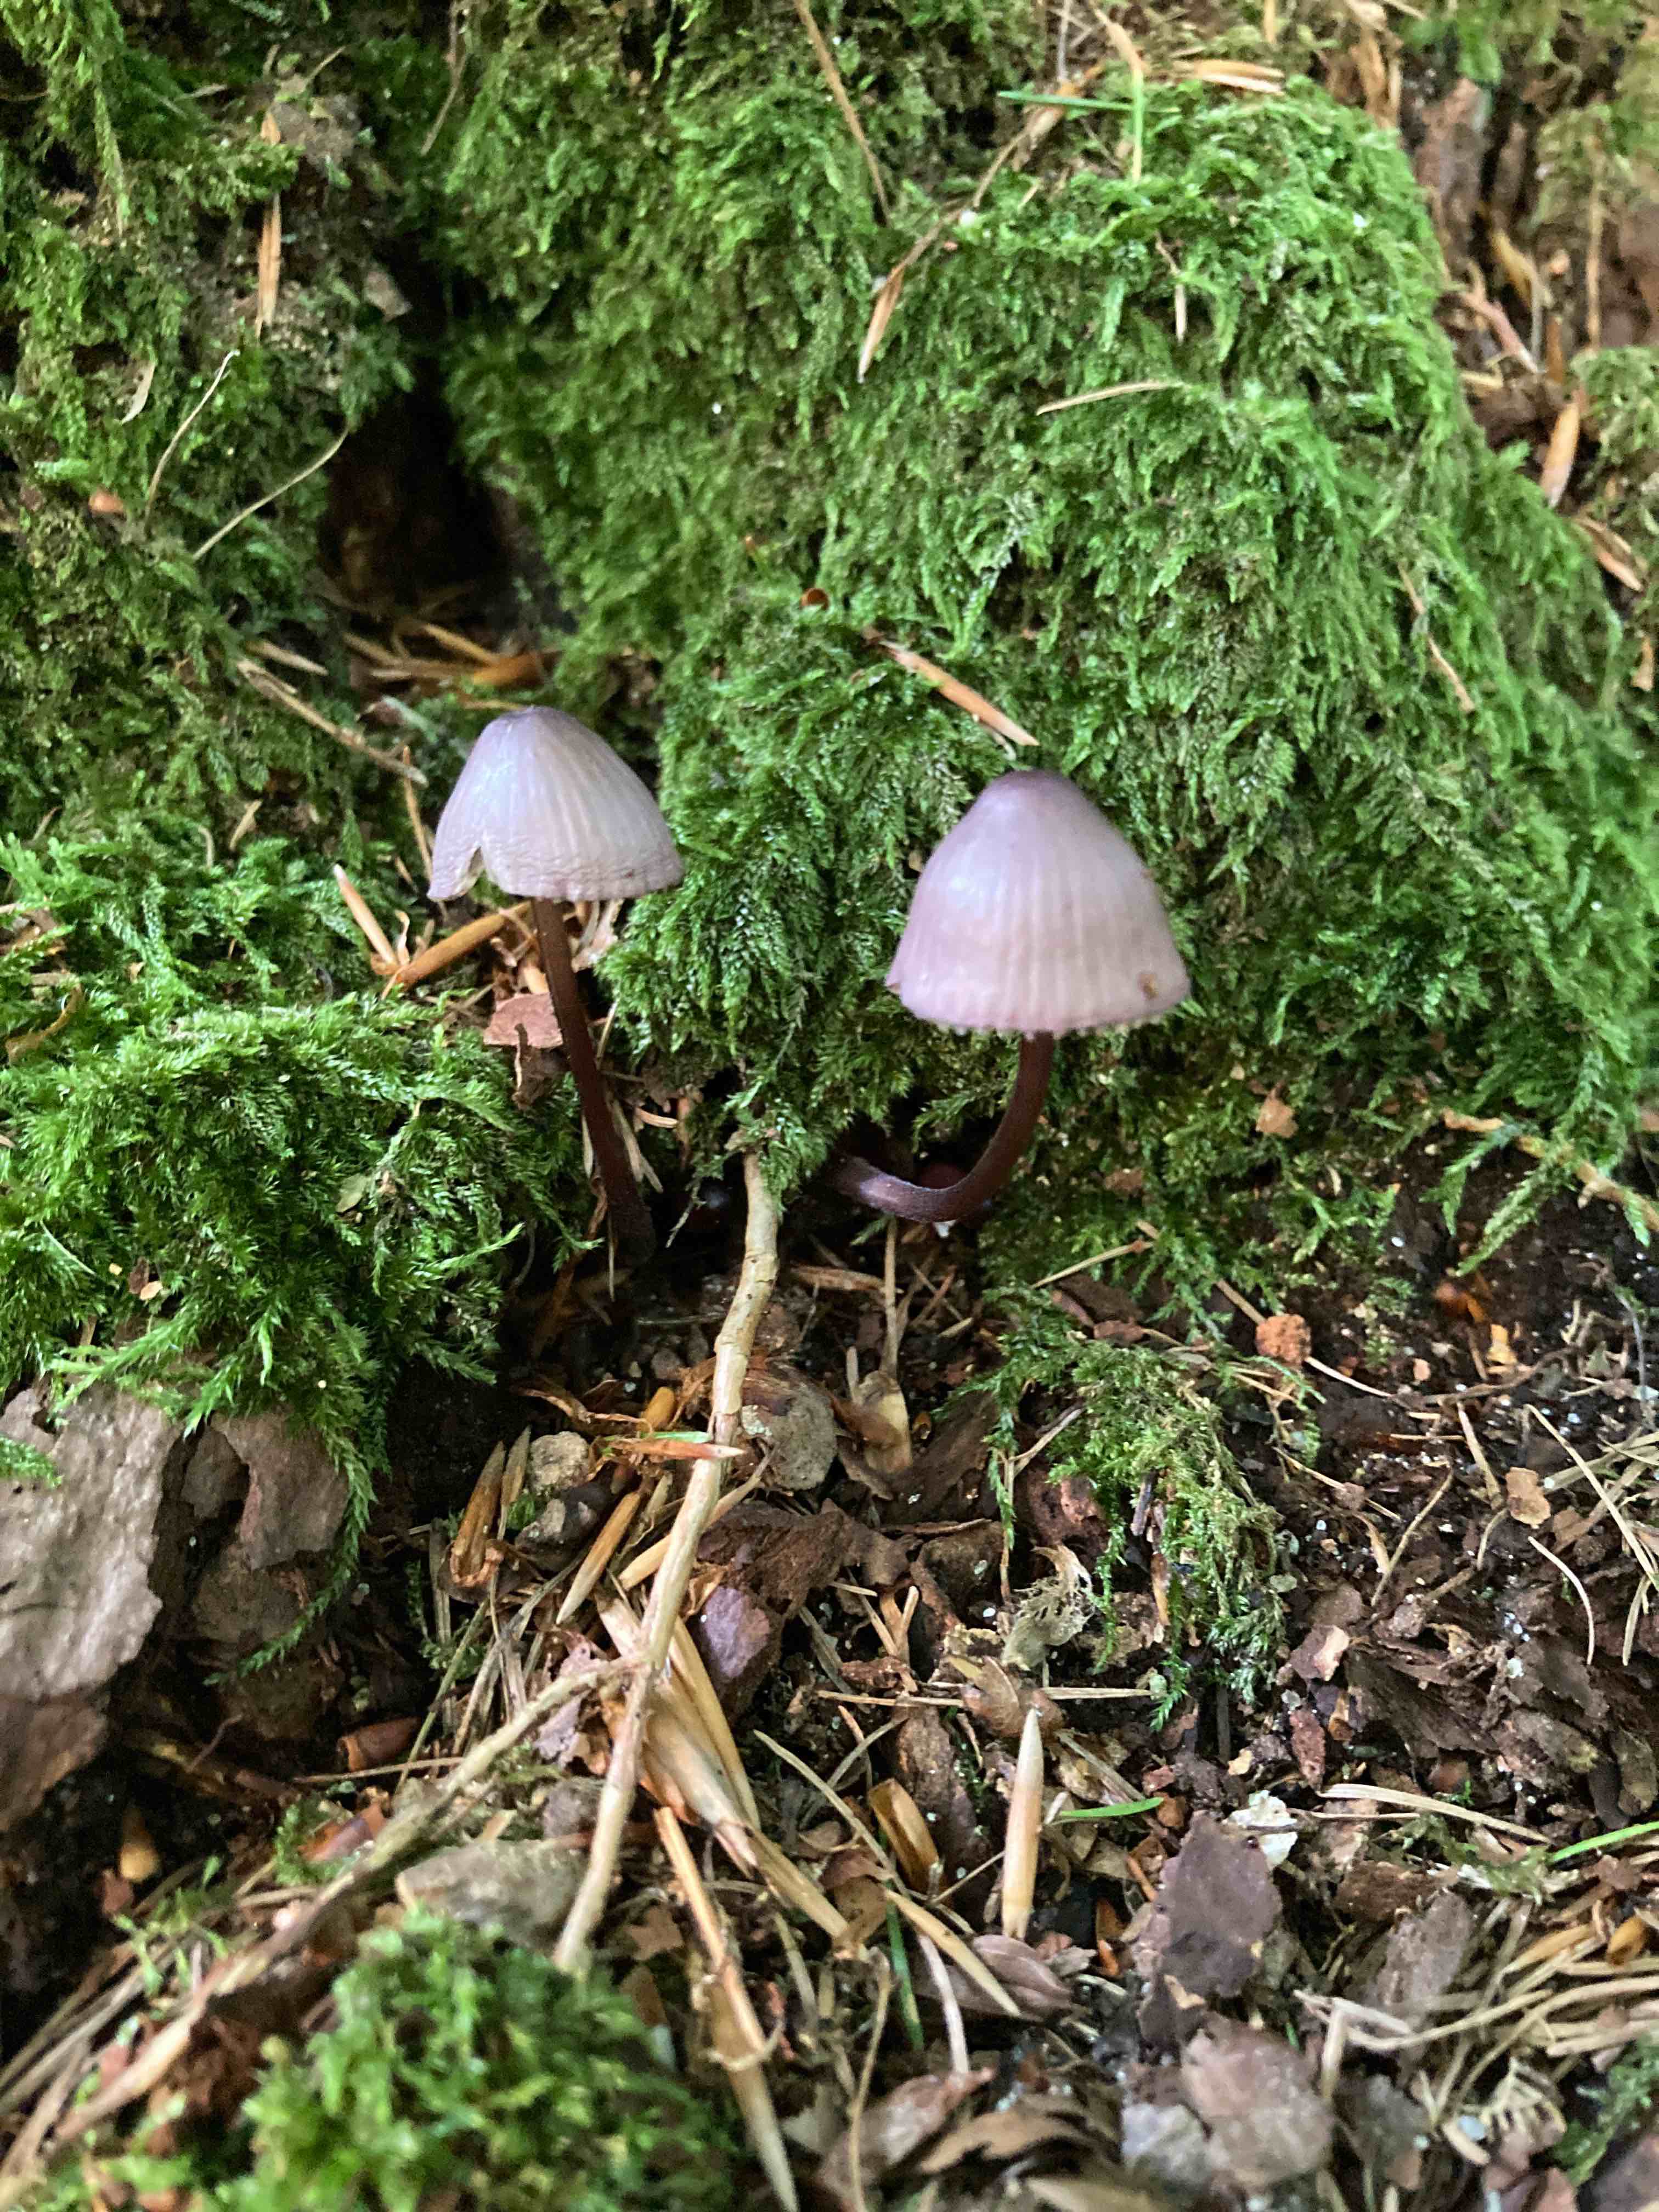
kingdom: Fungi
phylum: Basidiomycota
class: Agaricomycetes
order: Agaricales
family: Mycenaceae
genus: Mycena
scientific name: Mycena purpureofusca
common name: purpur-huesvamp
